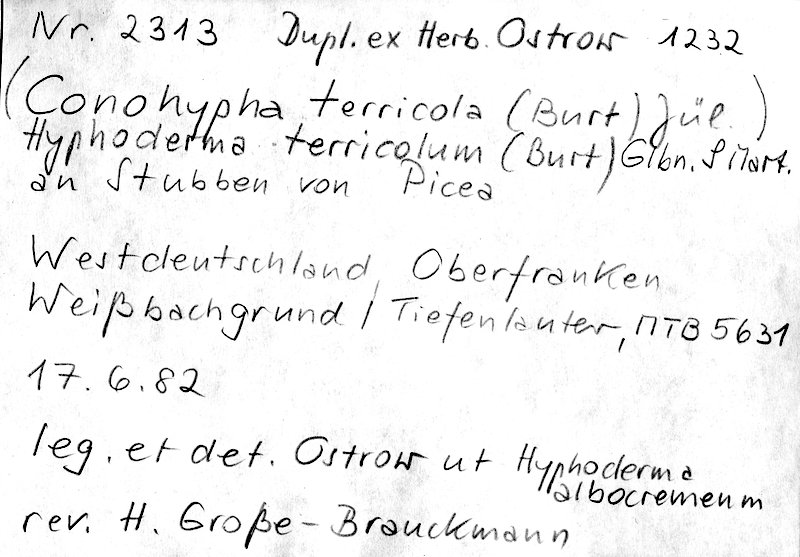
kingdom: Plantae
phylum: Tracheophyta
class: Pinopsida
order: Pinales
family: Pinaceae
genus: Picea
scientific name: Picea
